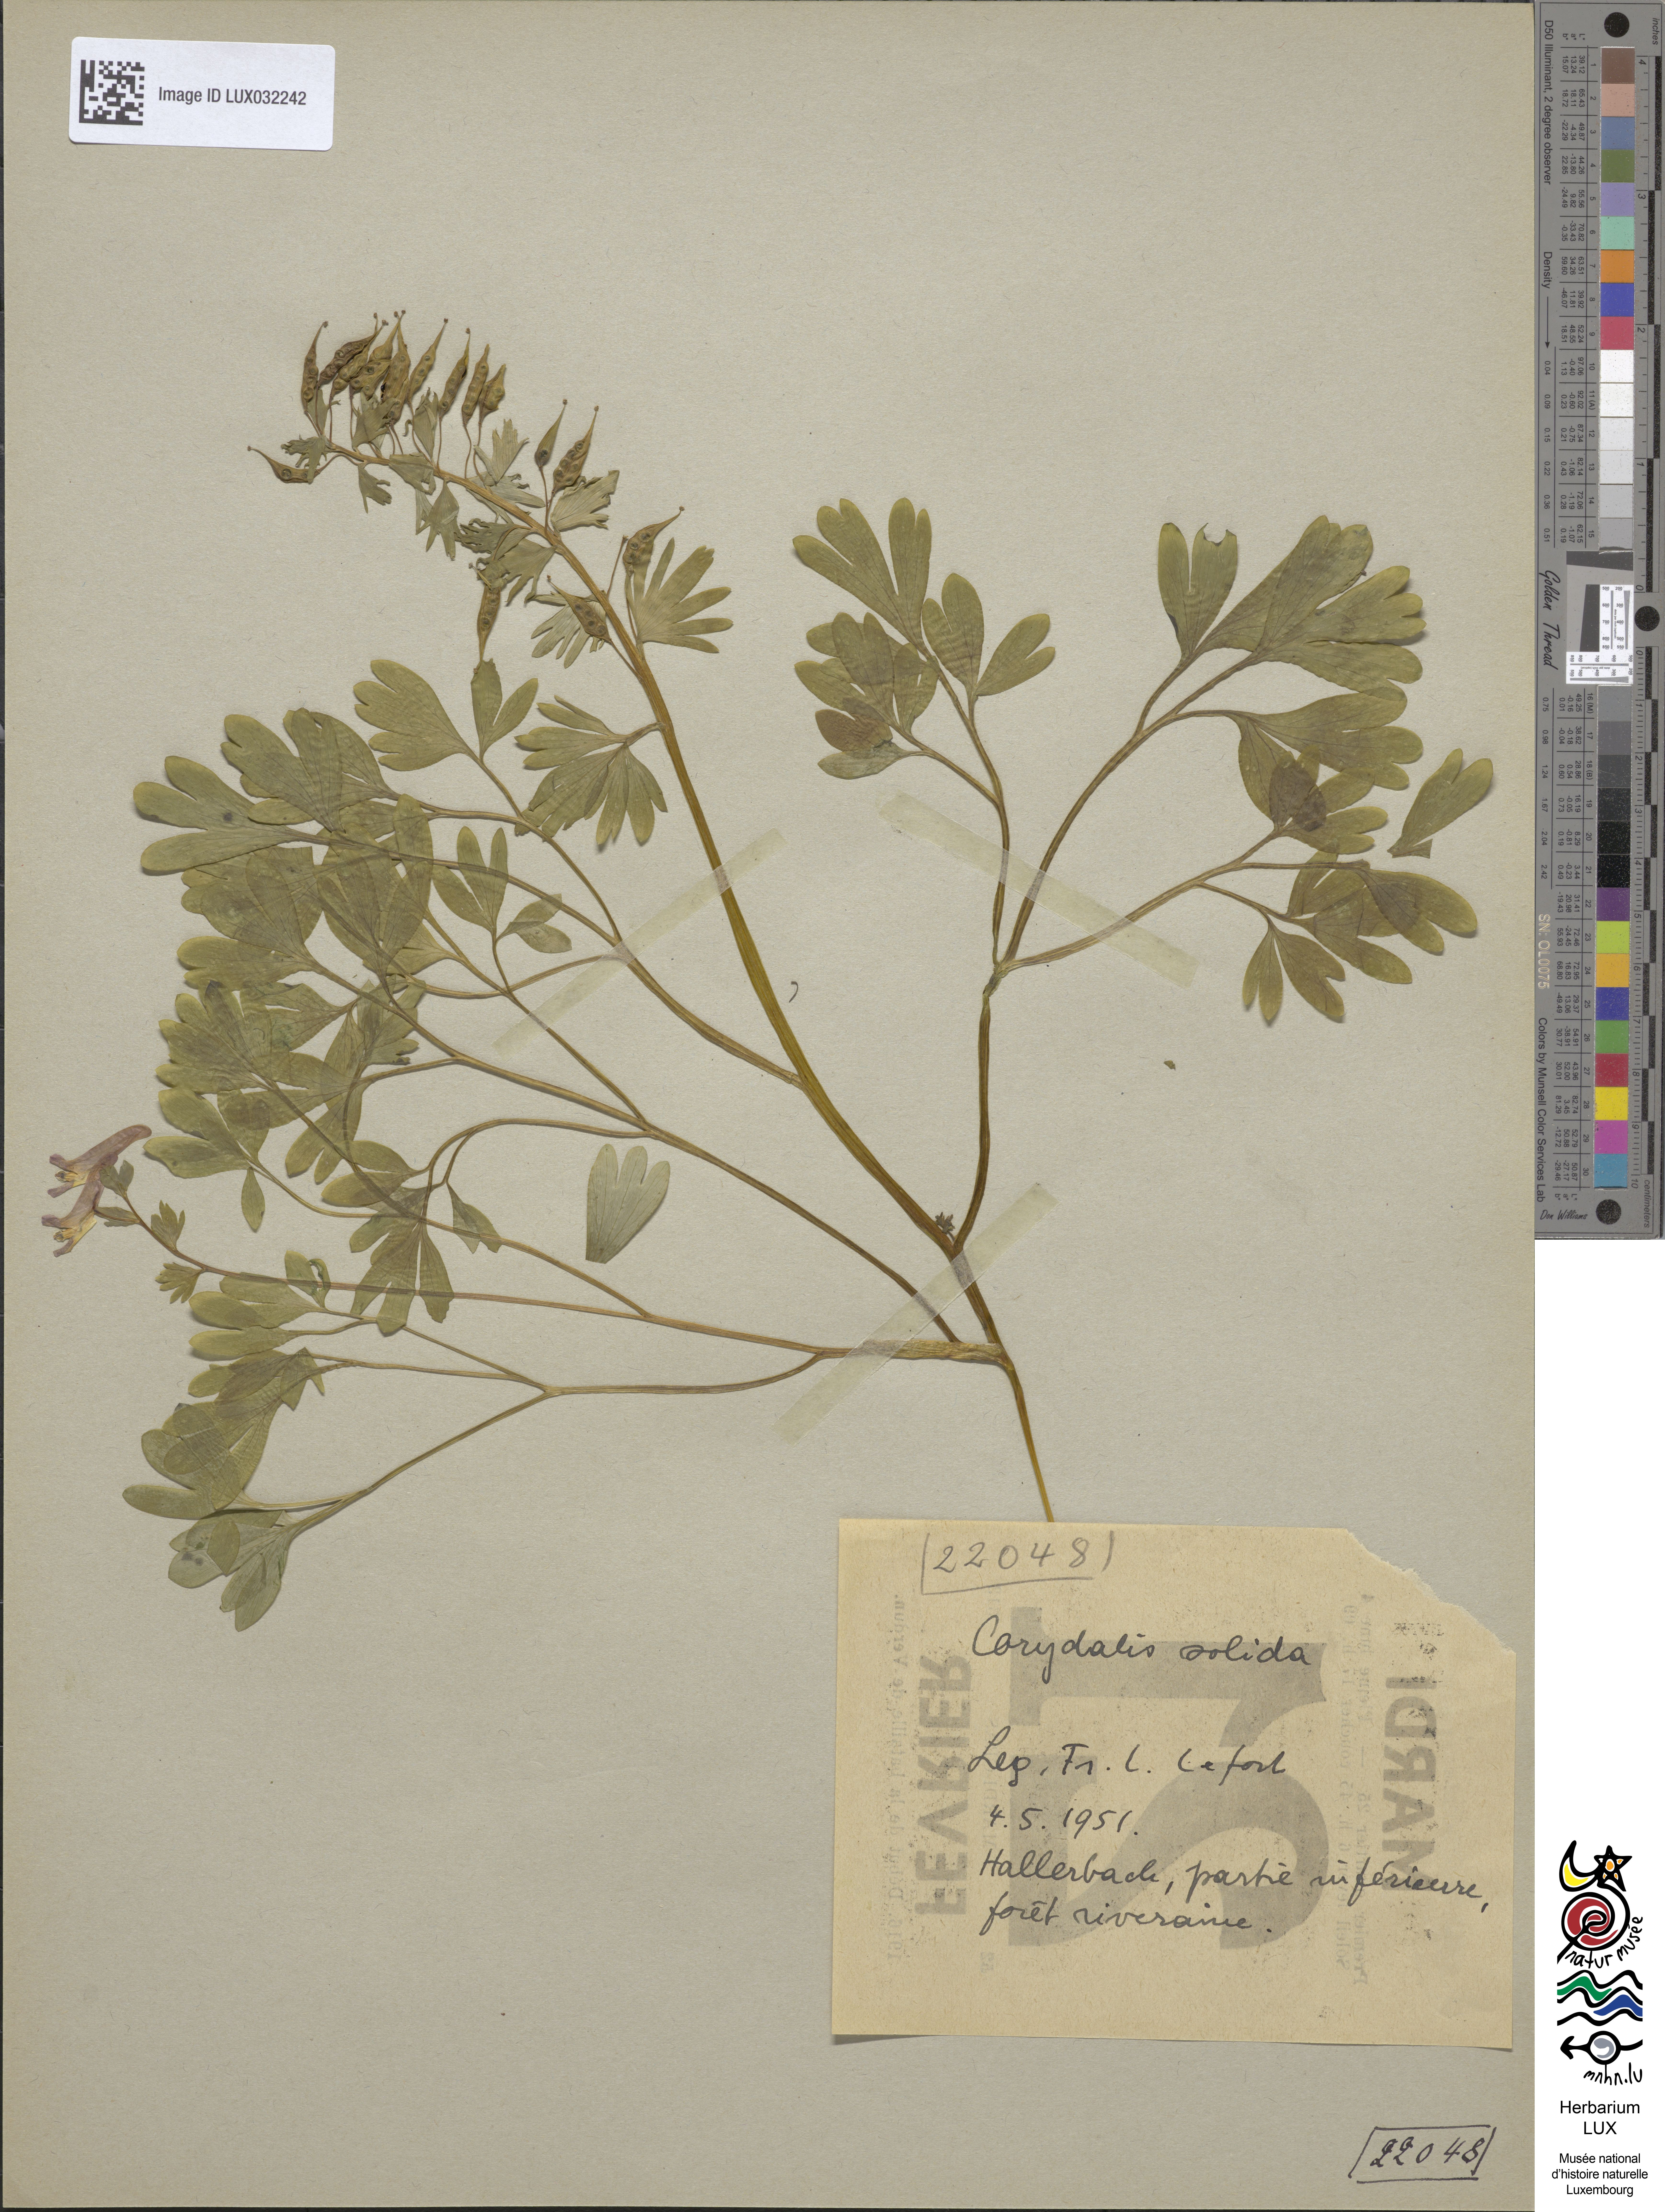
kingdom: Plantae
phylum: Tracheophyta
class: Magnoliopsida
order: Ranunculales
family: Papaveraceae
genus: Corydalis
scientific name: Corydalis solida
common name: Bird-in-a-bush
